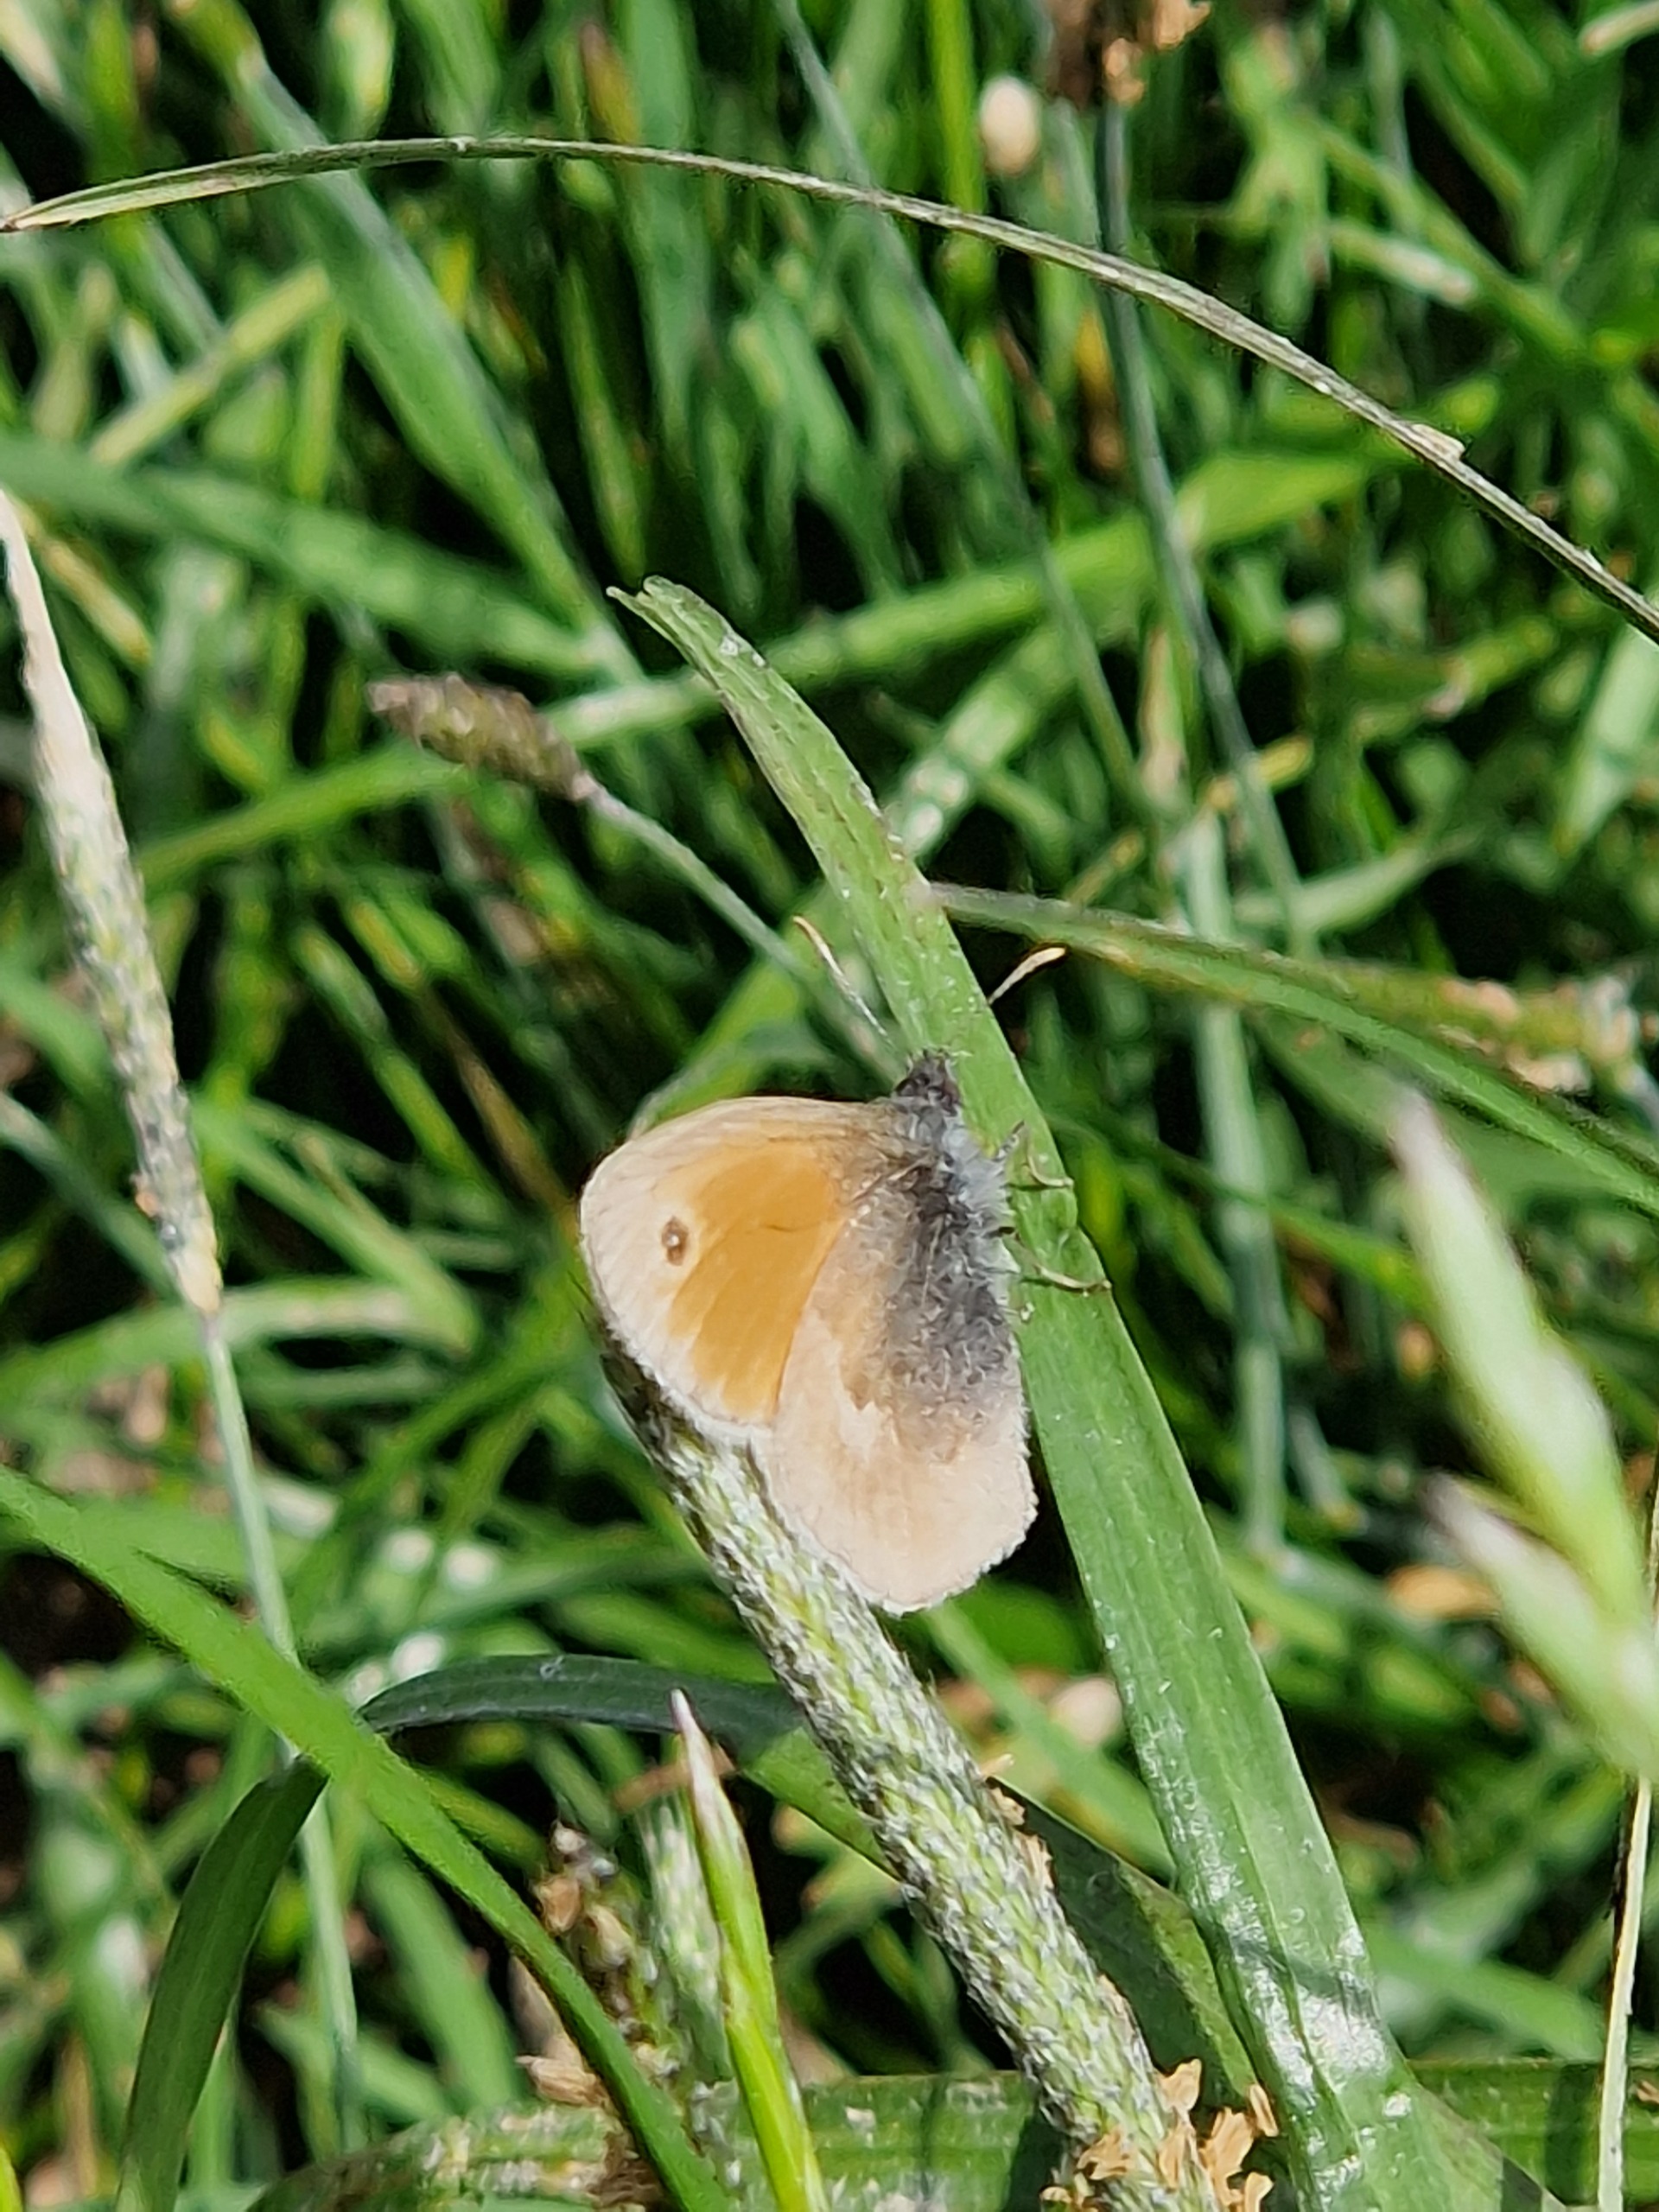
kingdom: Animalia
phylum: Arthropoda
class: Insecta
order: Lepidoptera
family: Nymphalidae
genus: Coenonympha
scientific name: Coenonympha pamphilus
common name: Okkergul randøje
